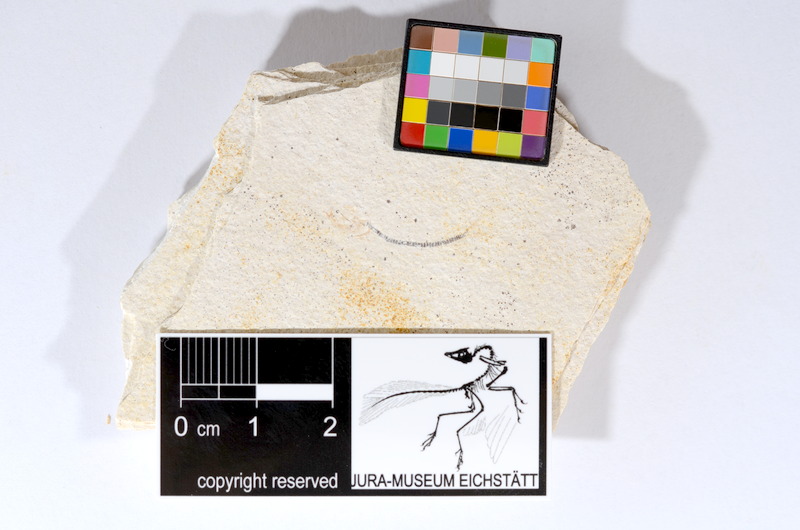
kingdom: Animalia
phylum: Chordata
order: Salmoniformes
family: Orthogonikleithridae
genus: Orthogonikleithrus
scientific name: Orthogonikleithrus hoelli
